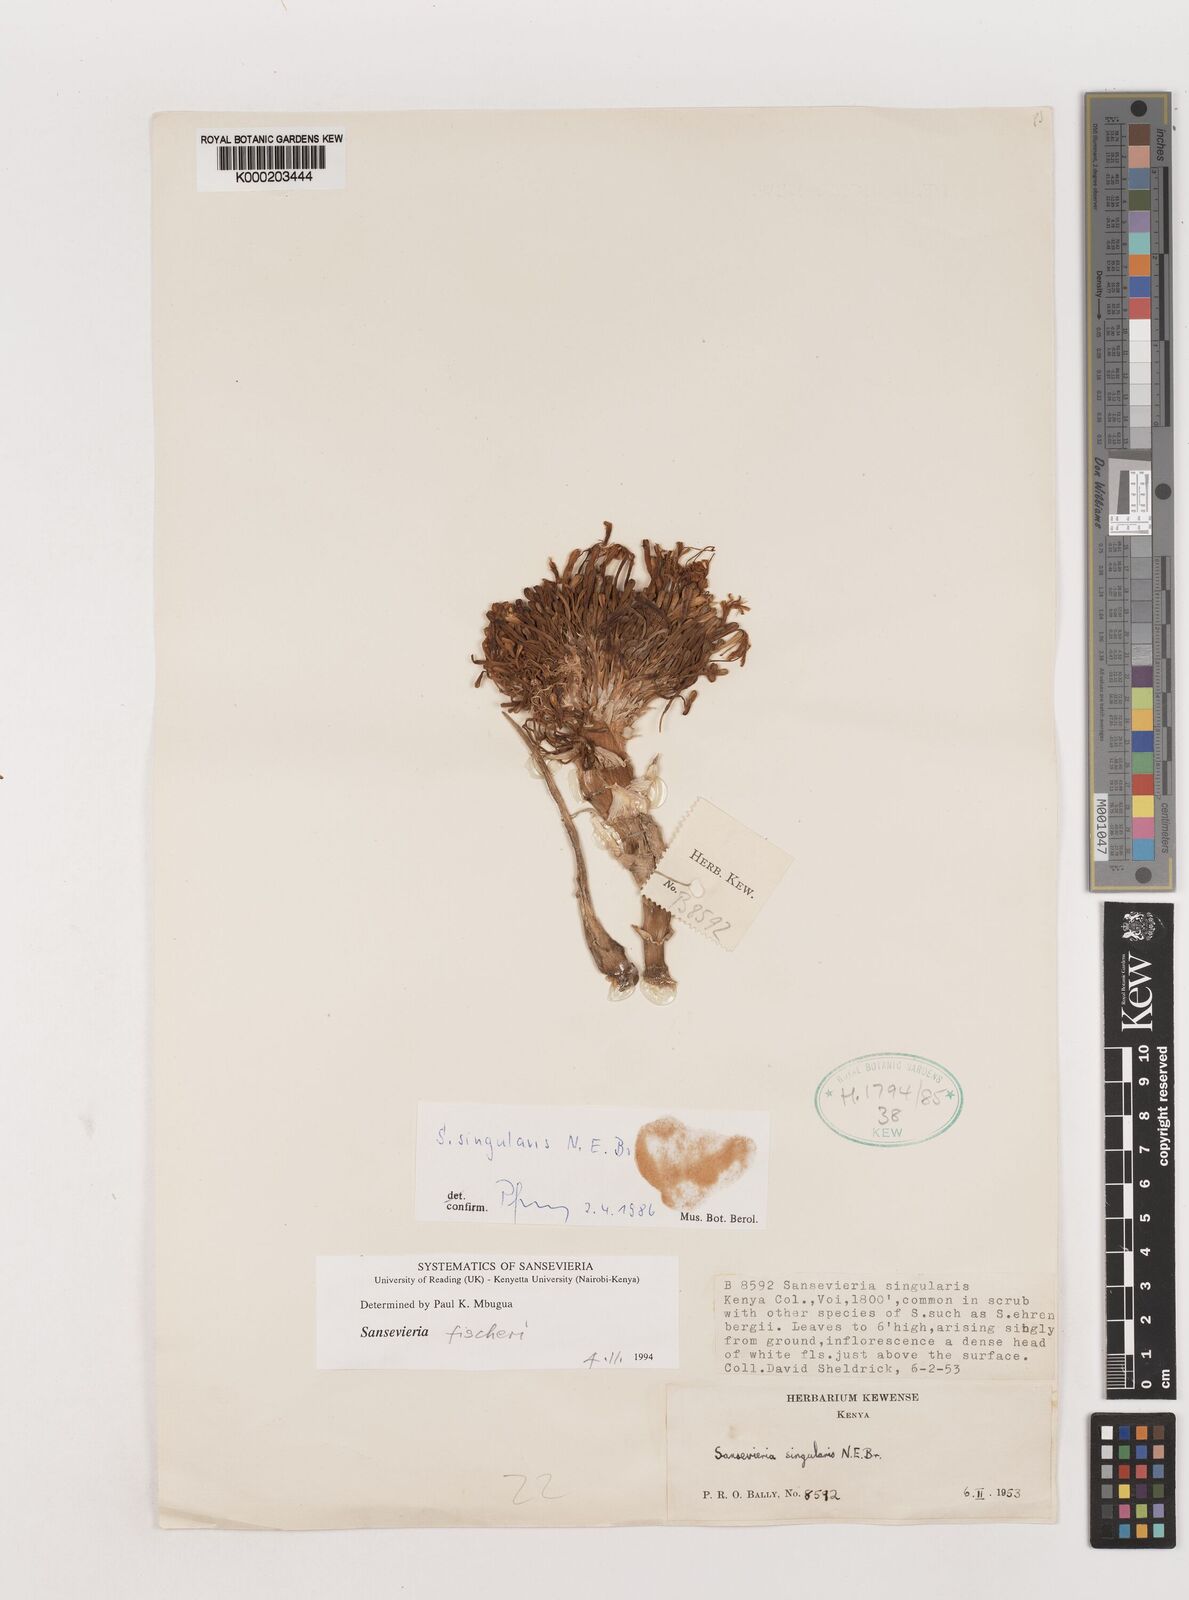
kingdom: Plantae
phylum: Tracheophyta
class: Liliopsida
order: Asparagales
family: Asparagaceae
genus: Dracaena
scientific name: Dracaena singularis
